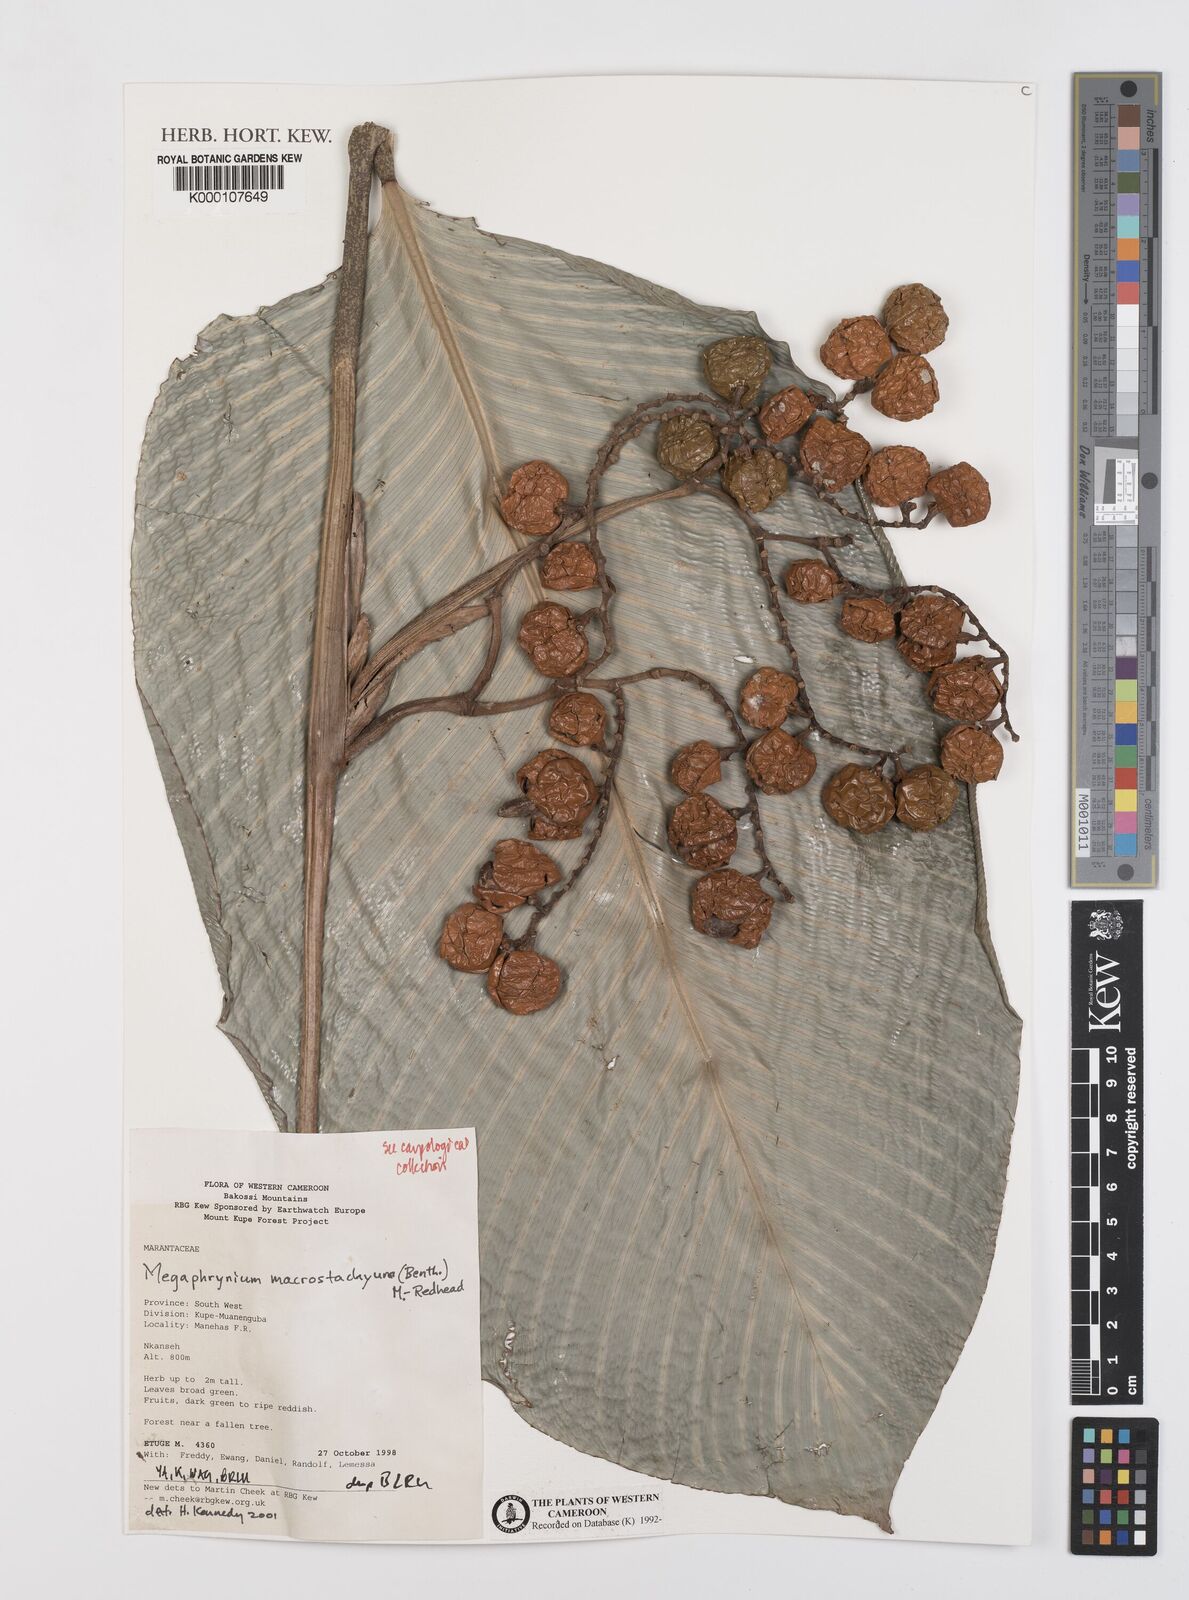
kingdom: Plantae
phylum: Tracheophyta
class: Liliopsida
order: Zingiberales
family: Marantaceae
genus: Megaphrynium
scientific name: Megaphrynium macrostachyum
